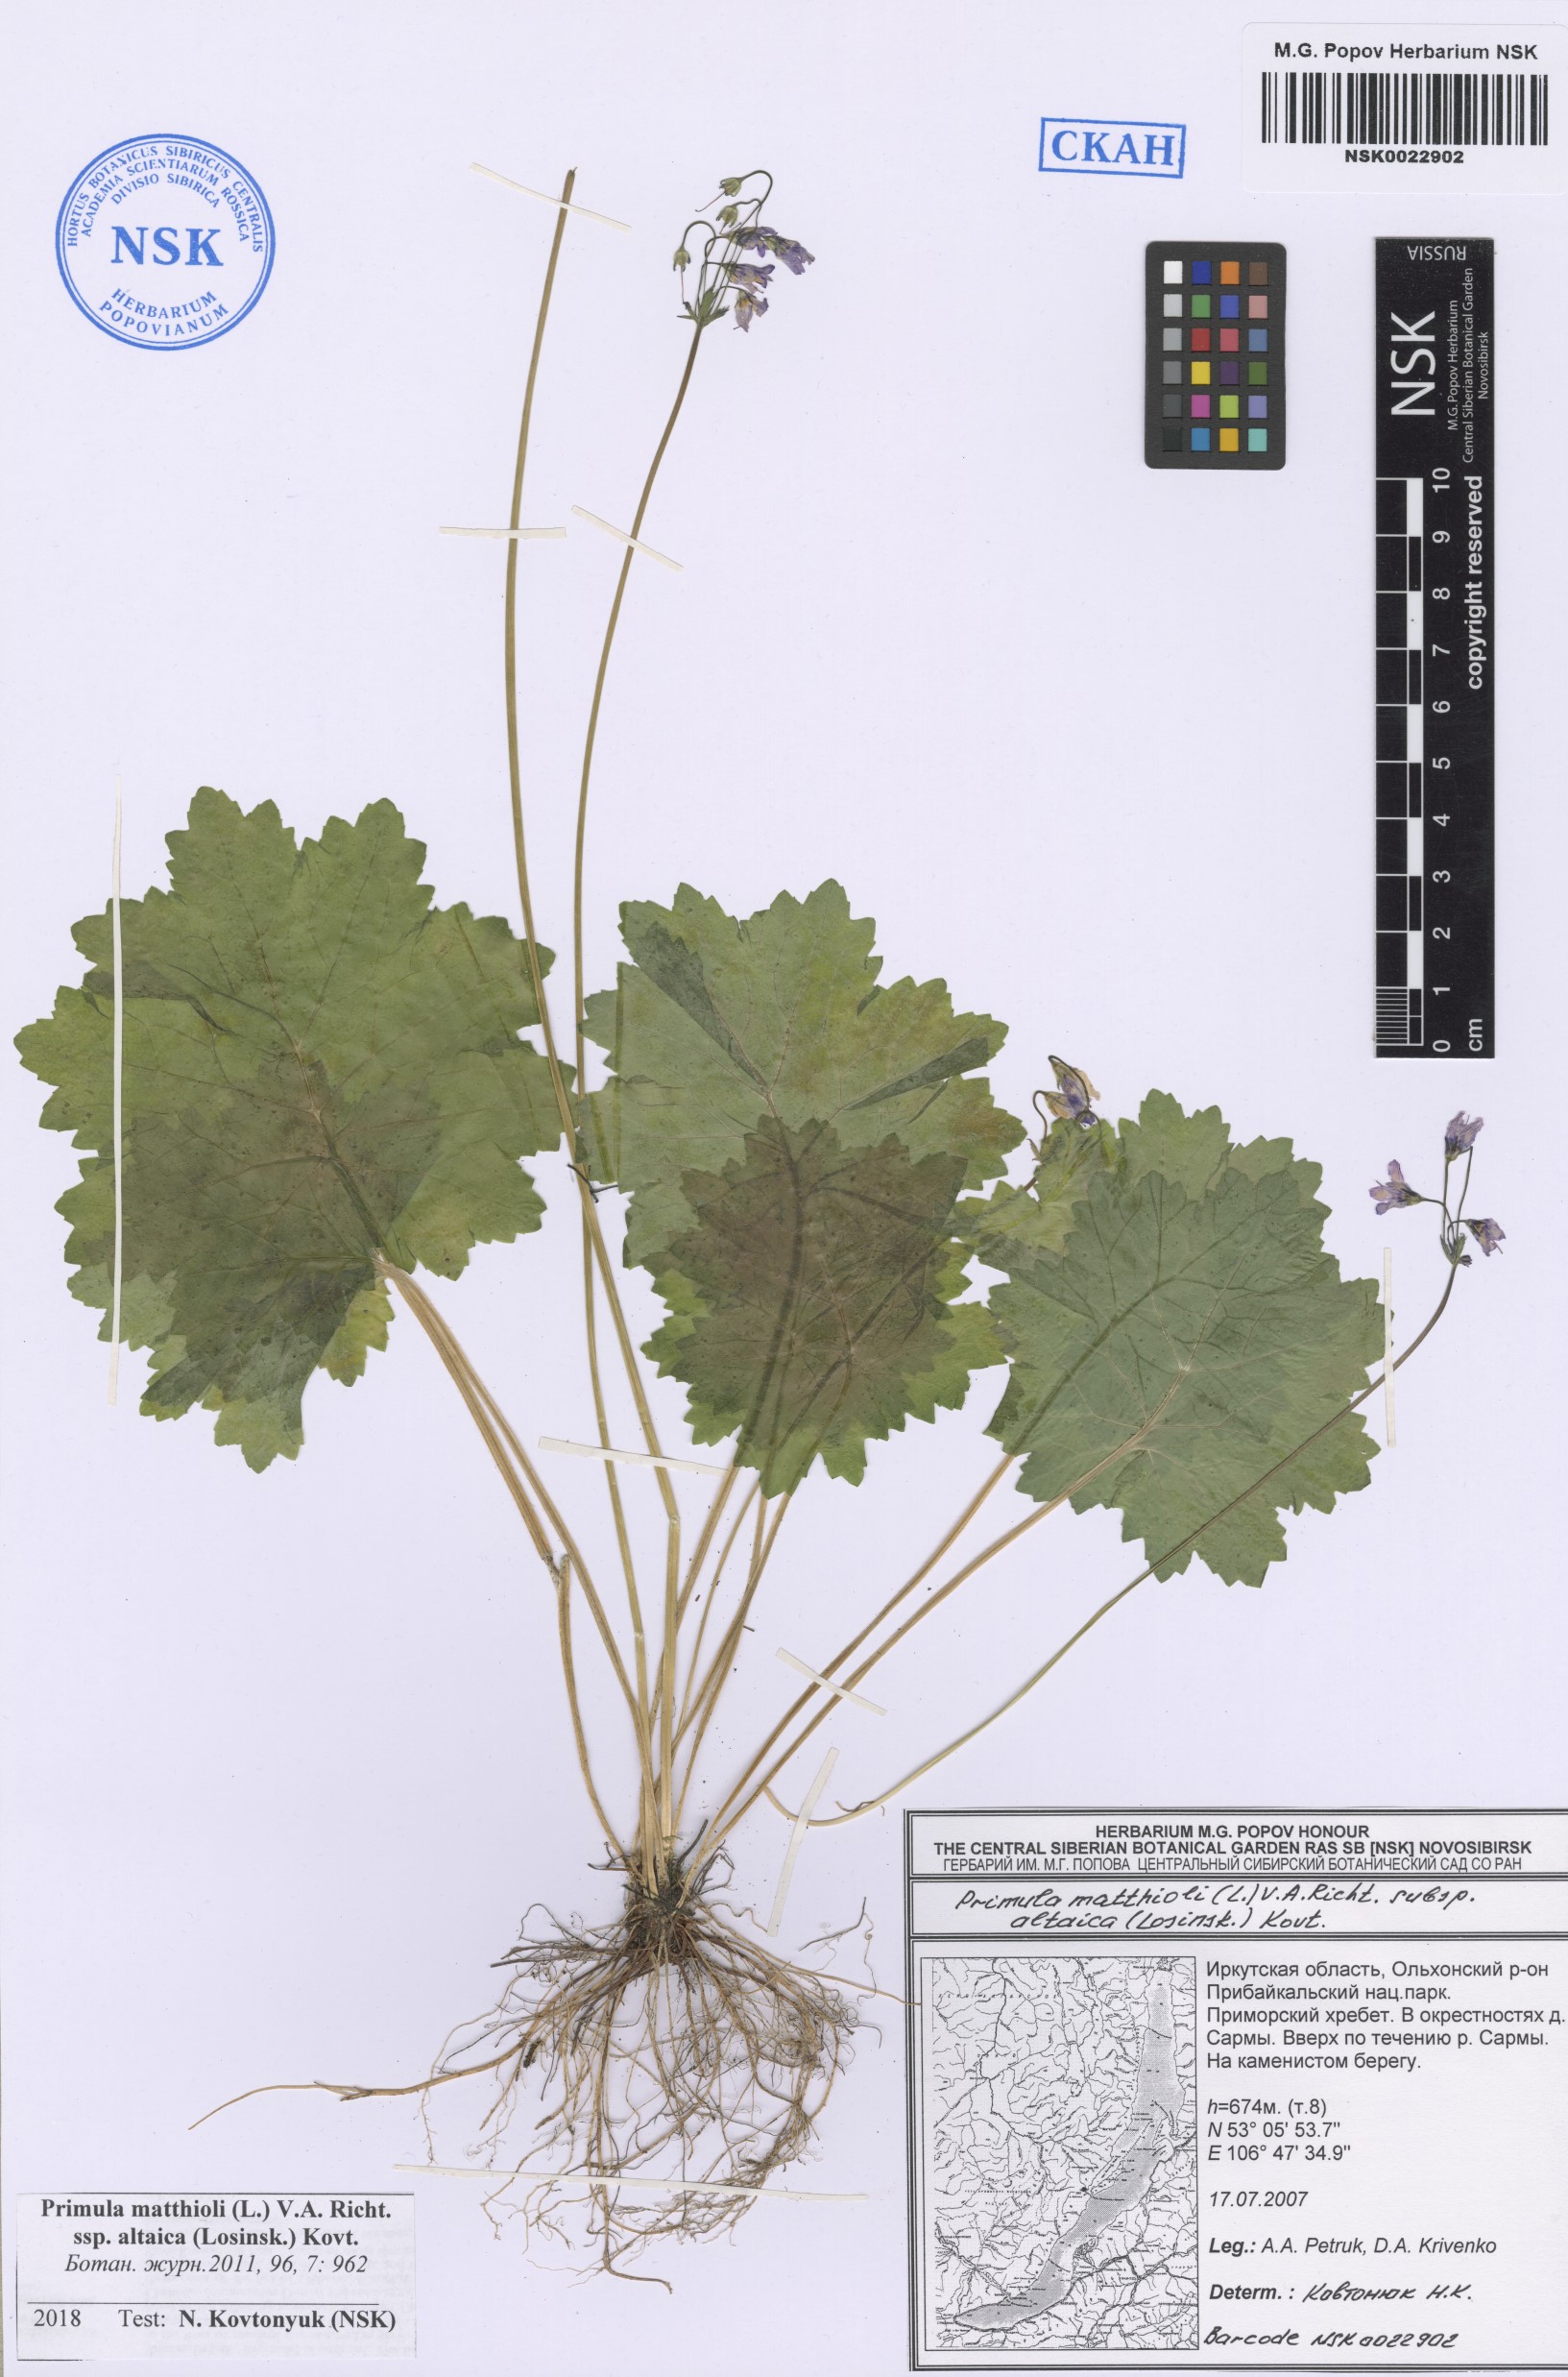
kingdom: Plantae
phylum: Tracheophyta
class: Magnoliopsida
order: Ericales
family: Primulaceae
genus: Primula
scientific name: Primula matthioli
